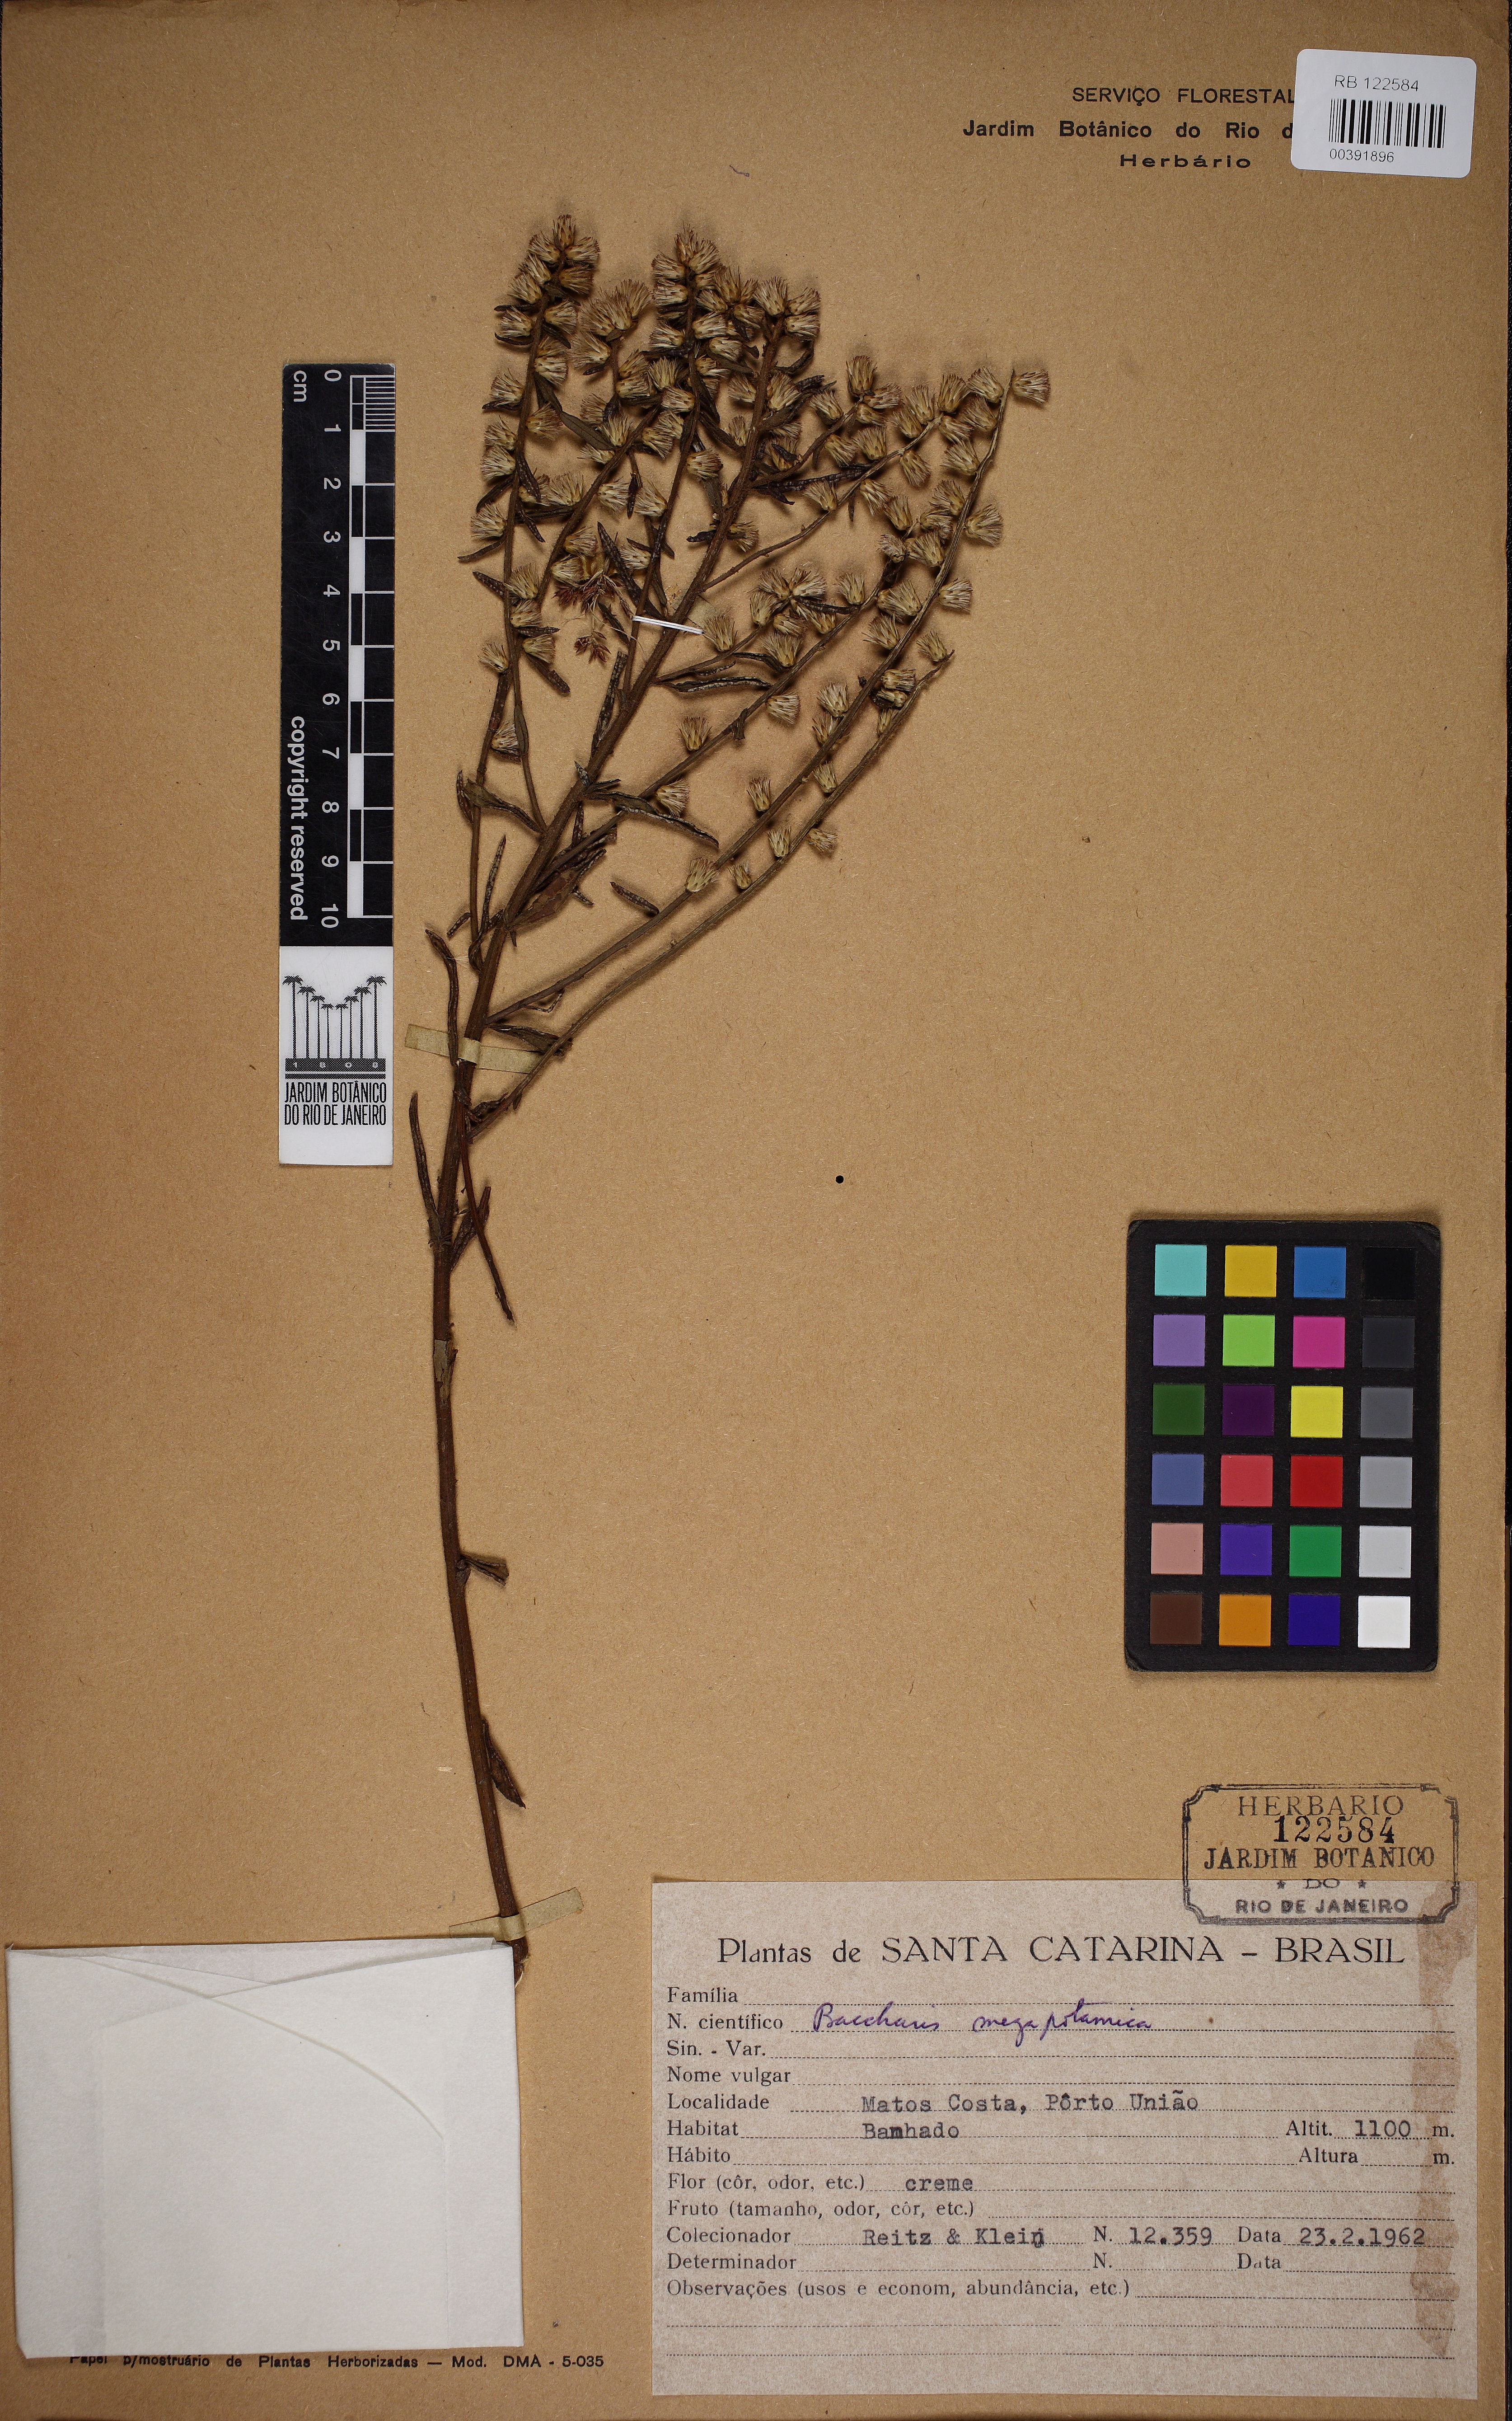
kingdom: Plantae
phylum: Tracheophyta
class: Magnoliopsida
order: Asterales
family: Asteraceae
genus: Baccharis
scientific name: Baccharis megapotamica
